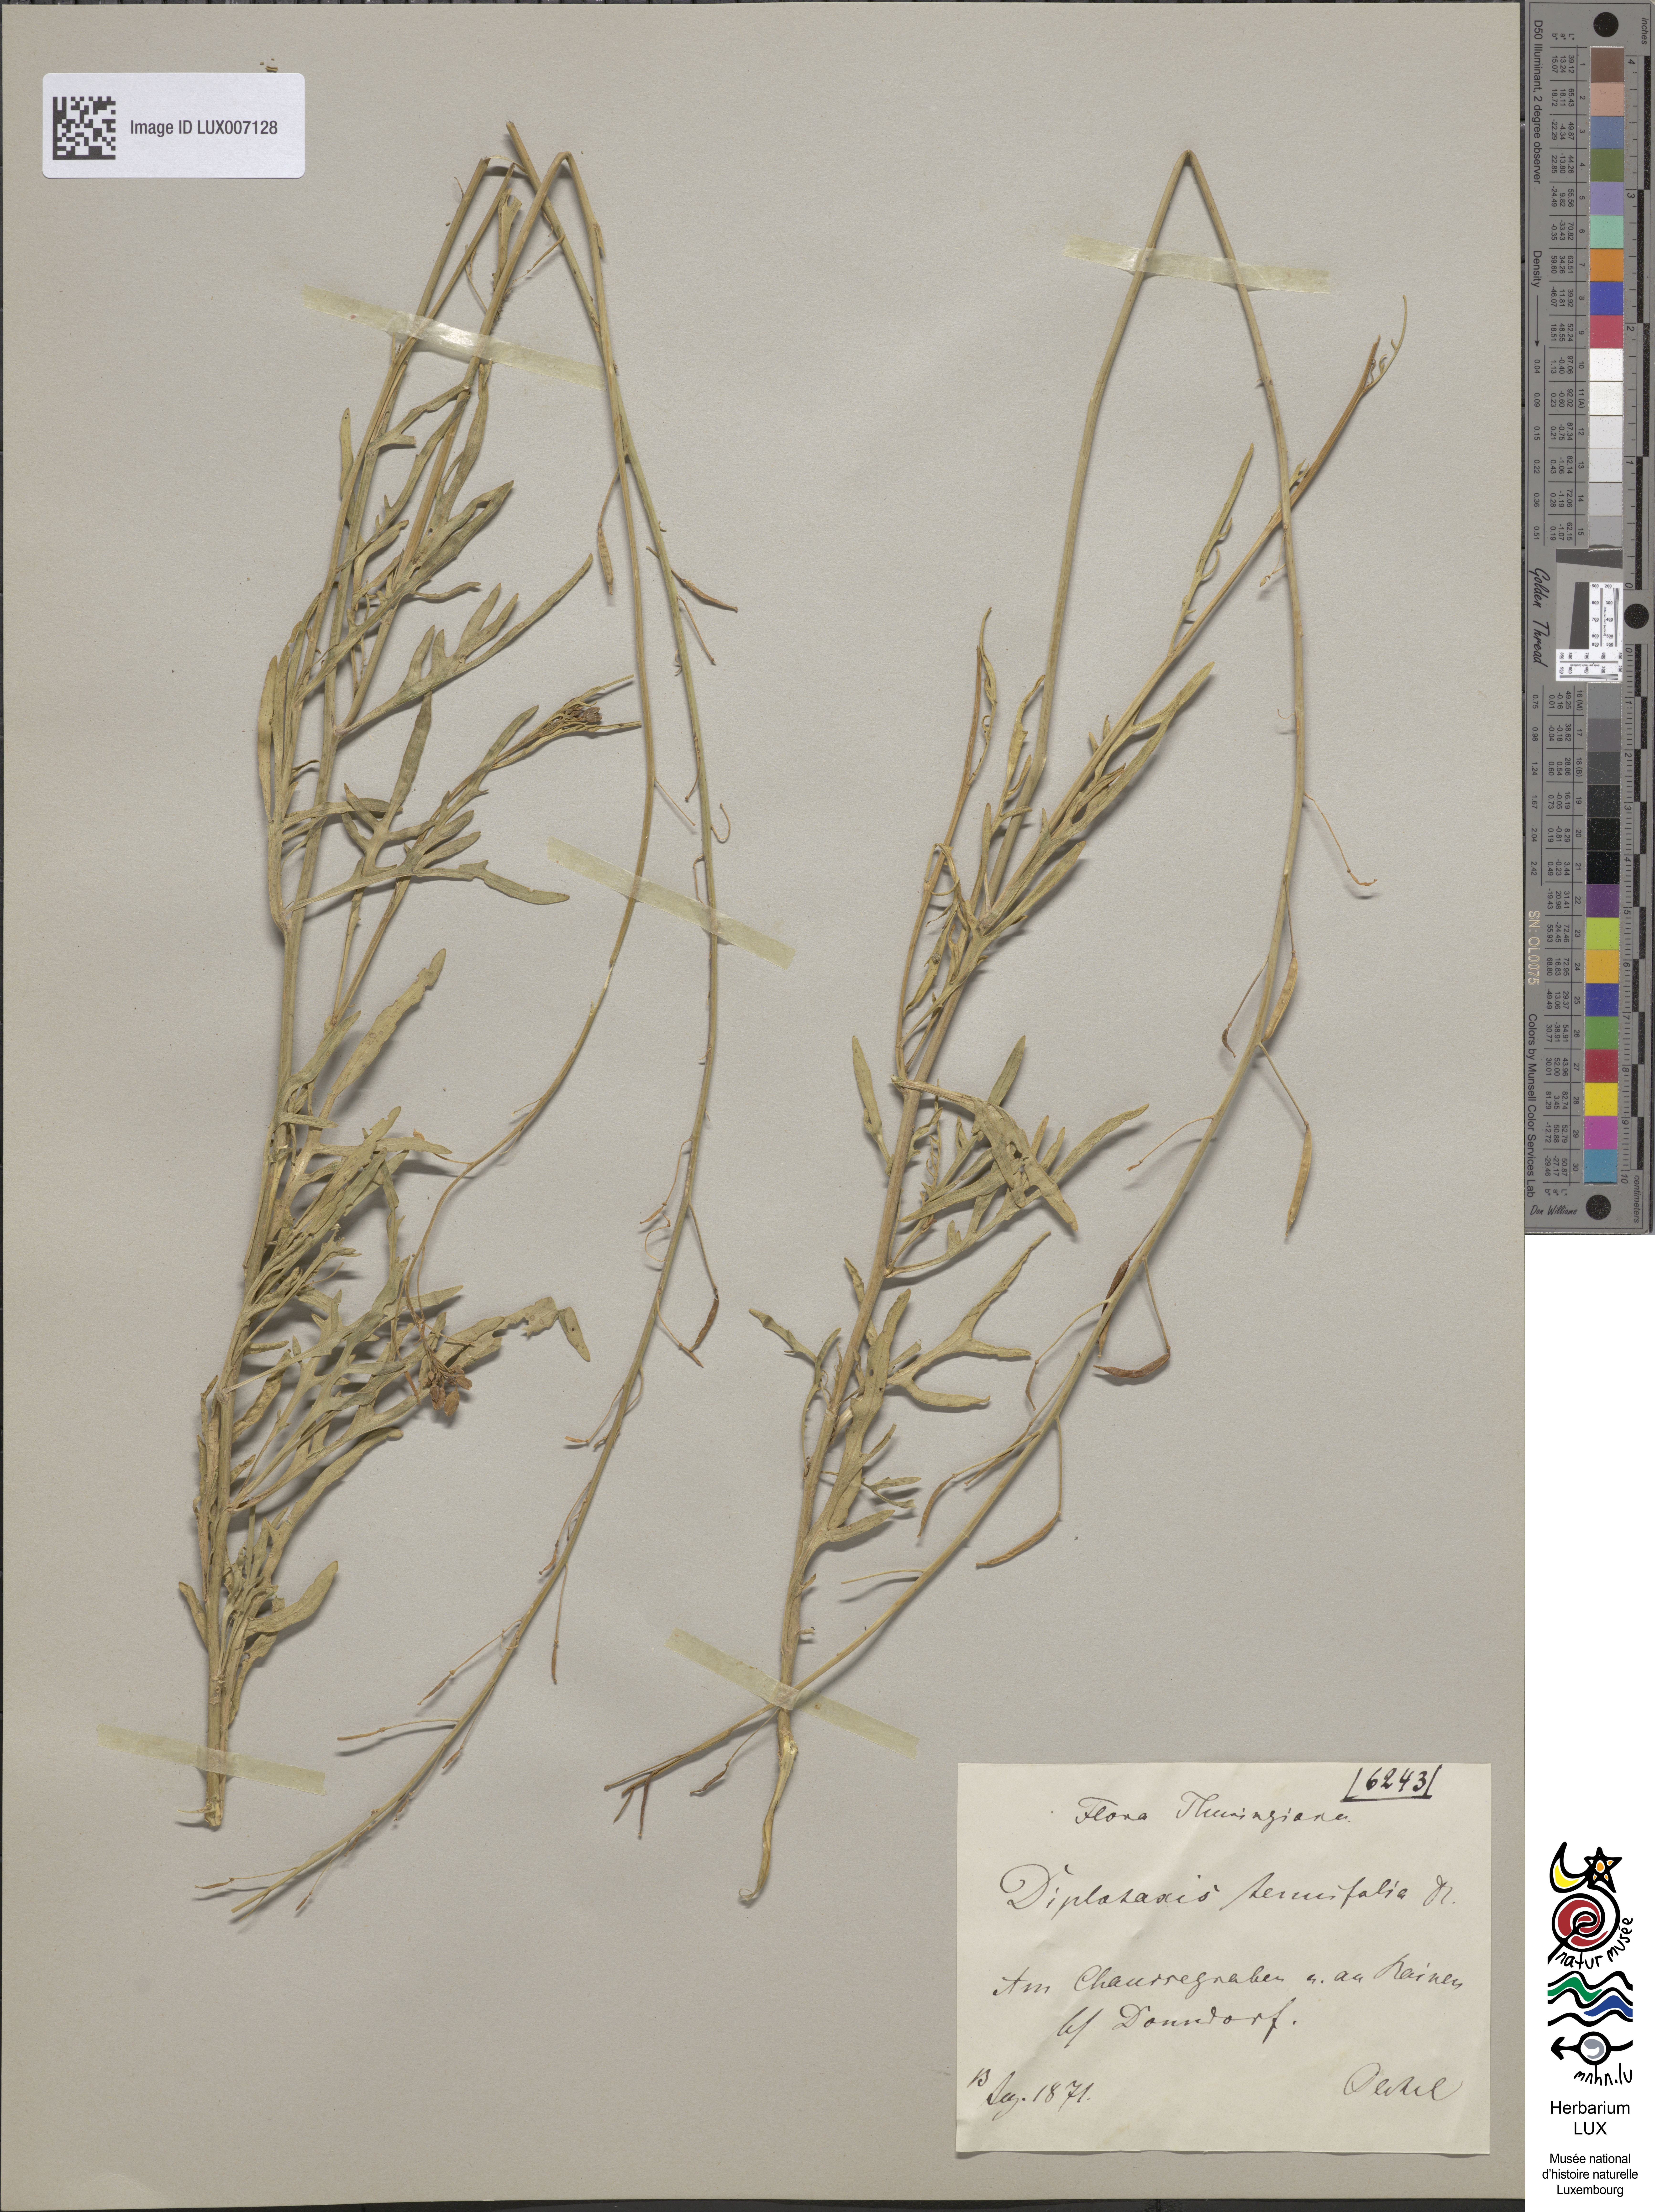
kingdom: Plantae
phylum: Tracheophyta
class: Magnoliopsida
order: Brassicales
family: Brassicaceae
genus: Diplotaxis
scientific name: Diplotaxis tenuifolia
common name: Perennial wall-rocket
